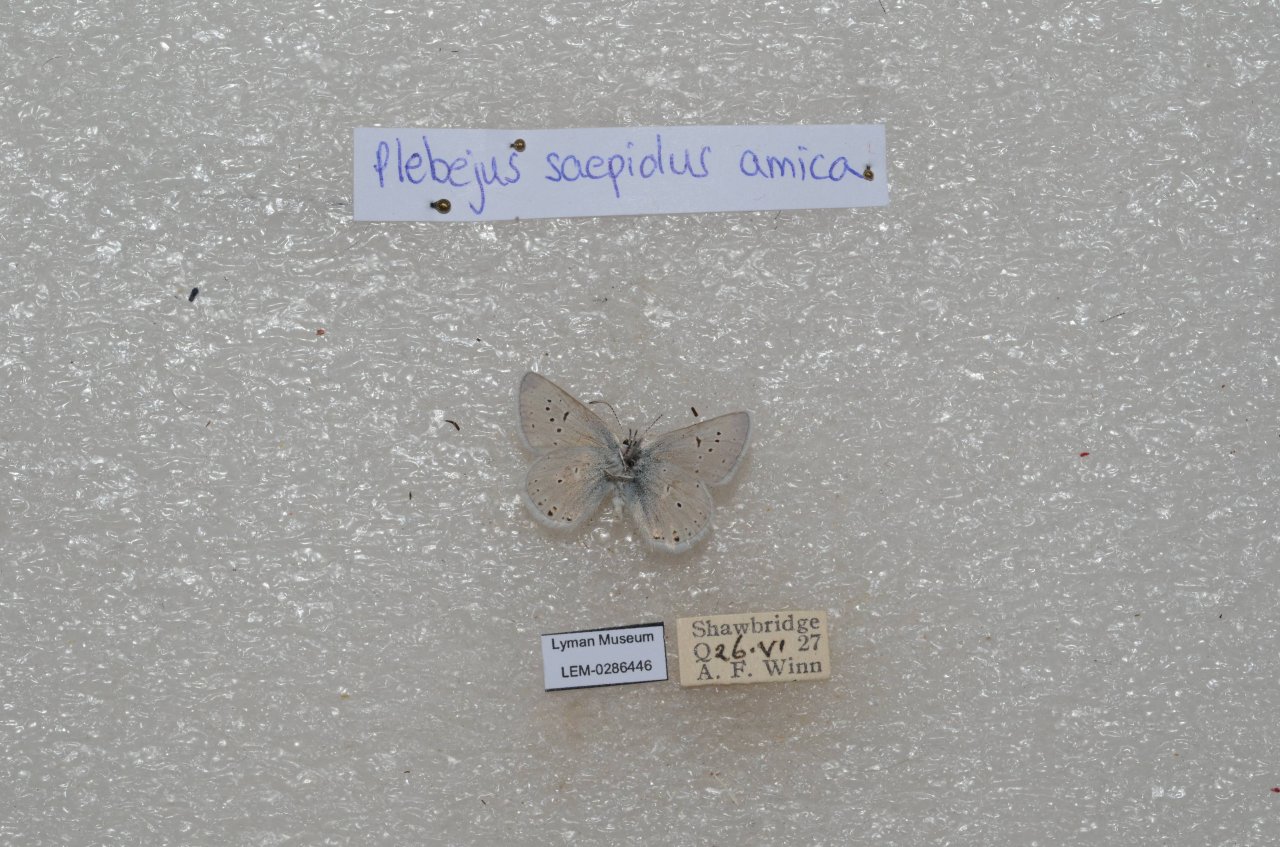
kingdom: Animalia
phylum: Arthropoda
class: Insecta
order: Lepidoptera
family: Lycaenidae
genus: Plebejus
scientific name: Plebejus saepiolus
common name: Greenish Blue
